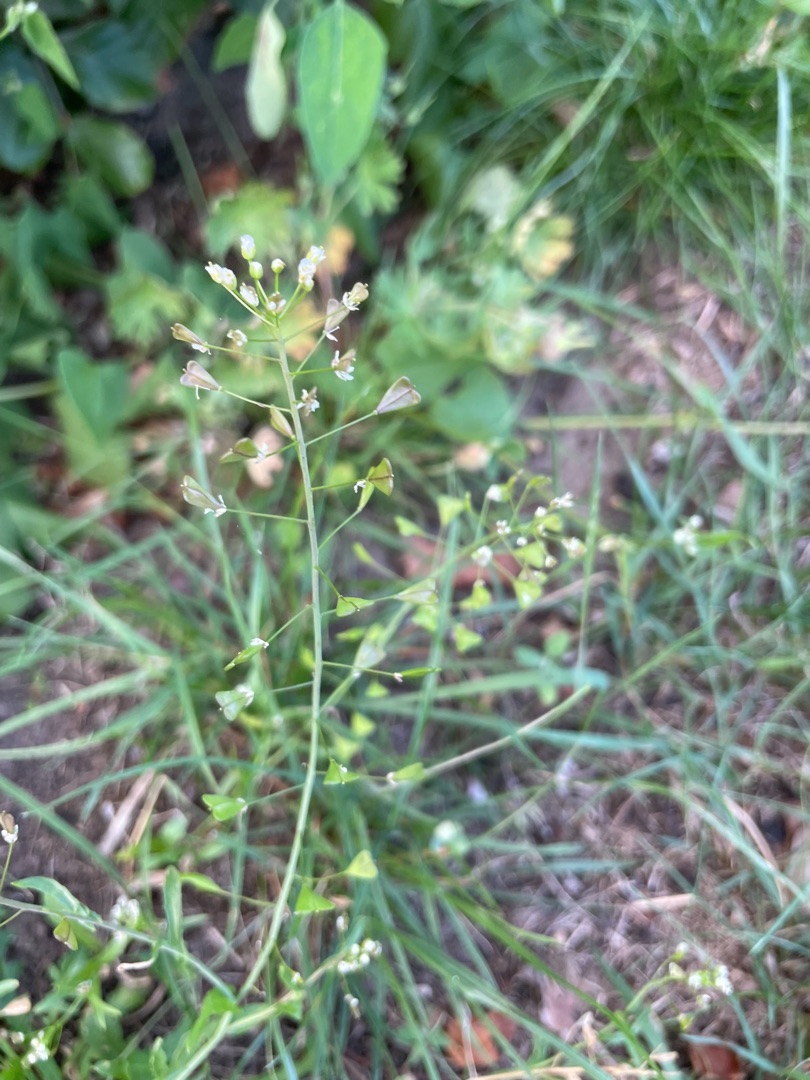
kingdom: Plantae
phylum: Tracheophyta
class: Magnoliopsida
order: Brassicales
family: Brassicaceae
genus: Capsella
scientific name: Capsella bursa-pastoris
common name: Hyrdetaske
